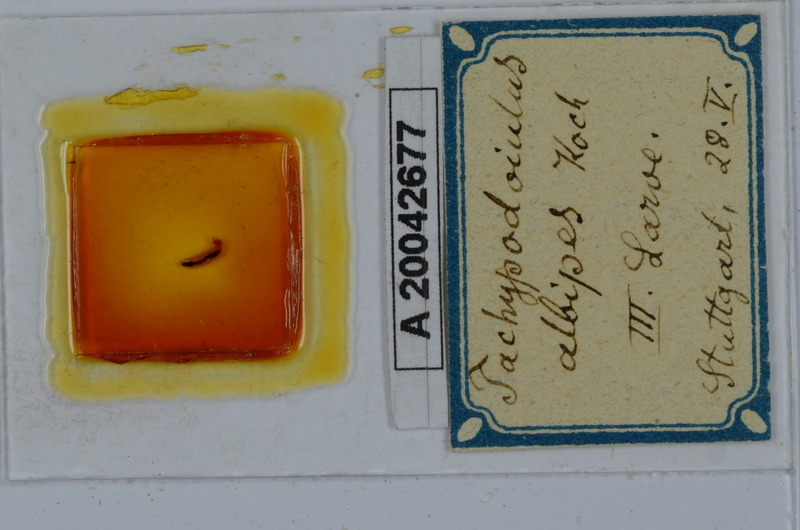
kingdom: Animalia
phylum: Arthropoda
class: Diplopoda
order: Julida
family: Julidae
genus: Tachypodoiulus
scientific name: Tachypodoiulus niger
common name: White-legged snake millipede
